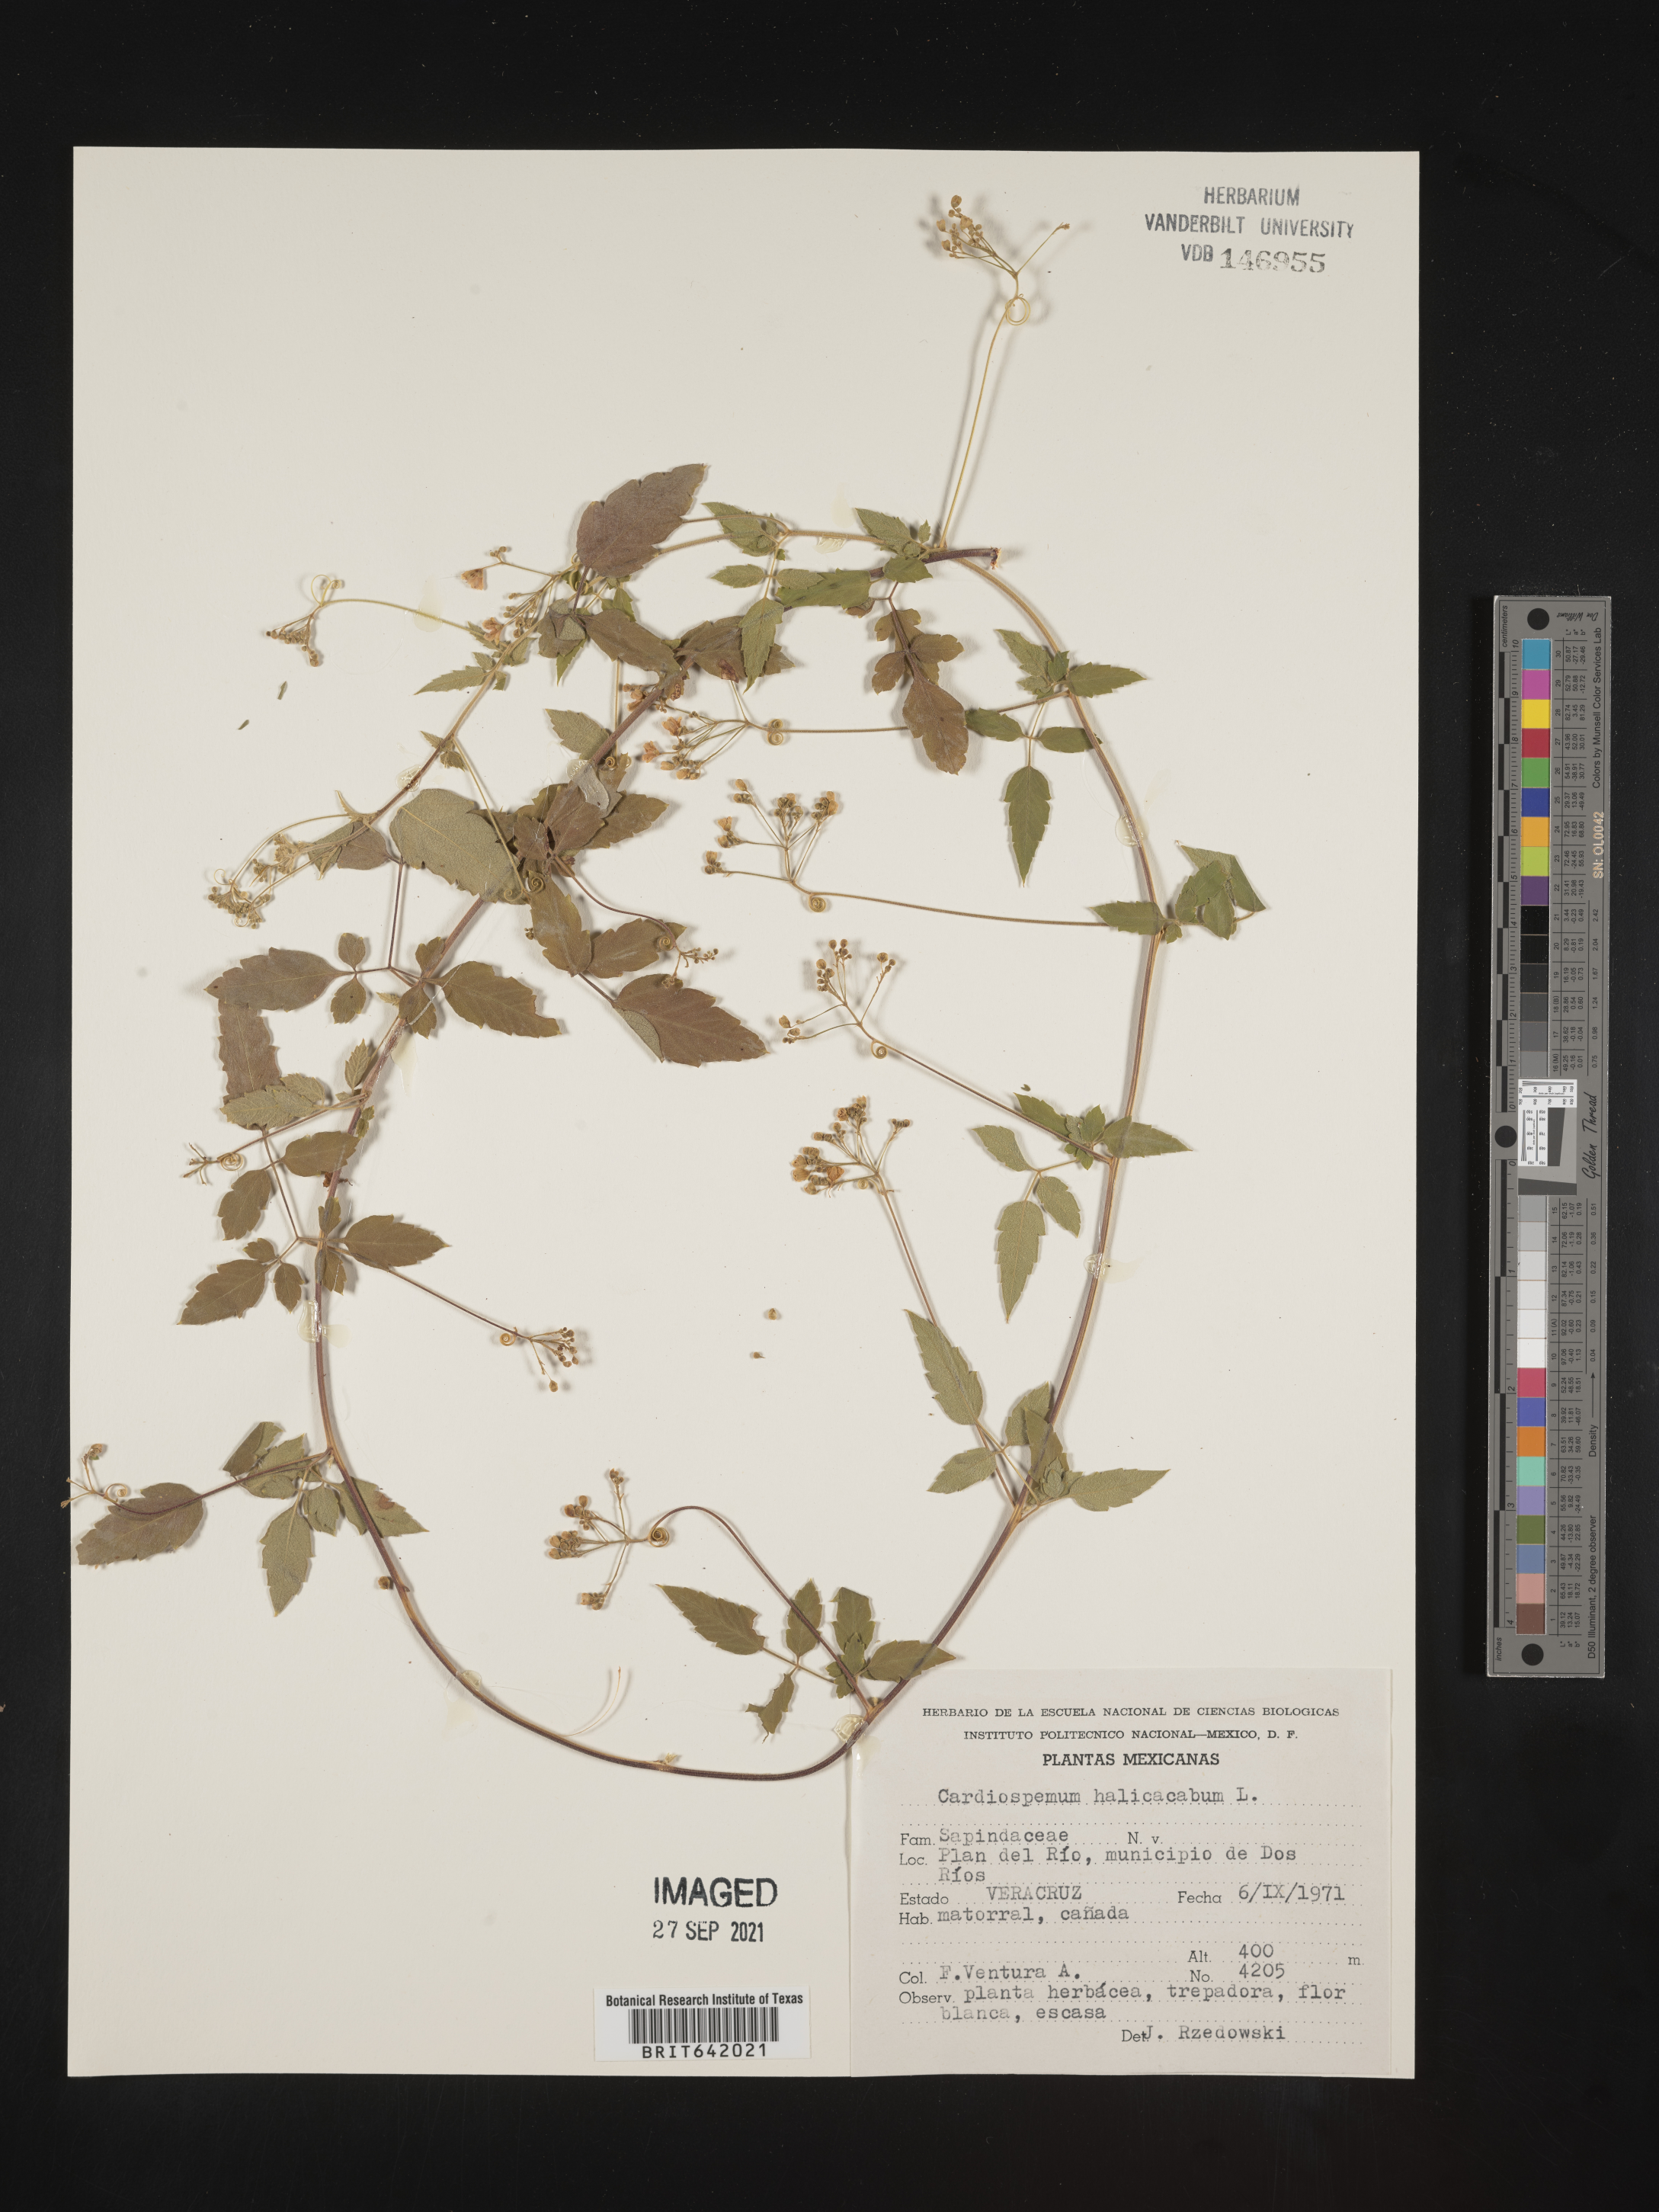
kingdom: Plantae
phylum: Tracheophyta
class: Magnoliopsida
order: Sapindales
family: Sapindaceae
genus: Cardiospermum
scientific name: Cardiospermum
